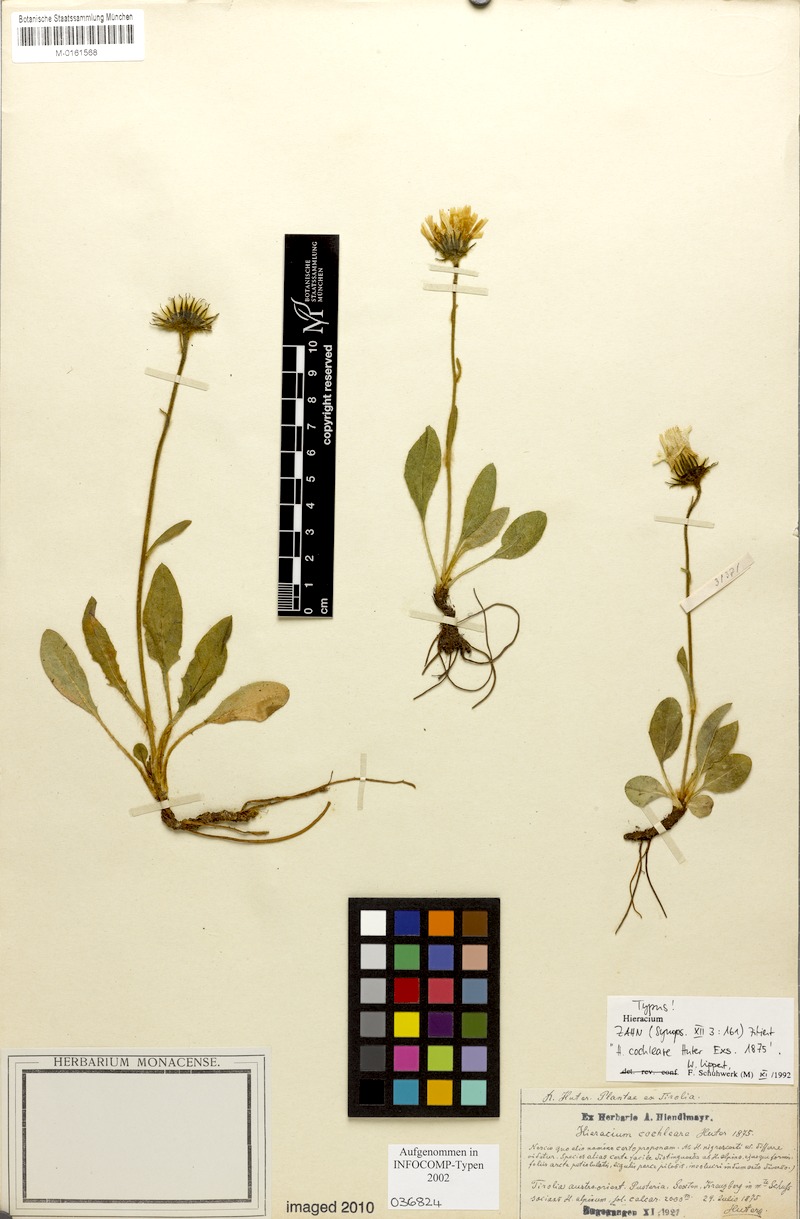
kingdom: Plantae
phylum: Tracheophyta
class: Magnoliopsida
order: Asterales
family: Asteraceae
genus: Hieracium
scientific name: Hieracium nigrescens
